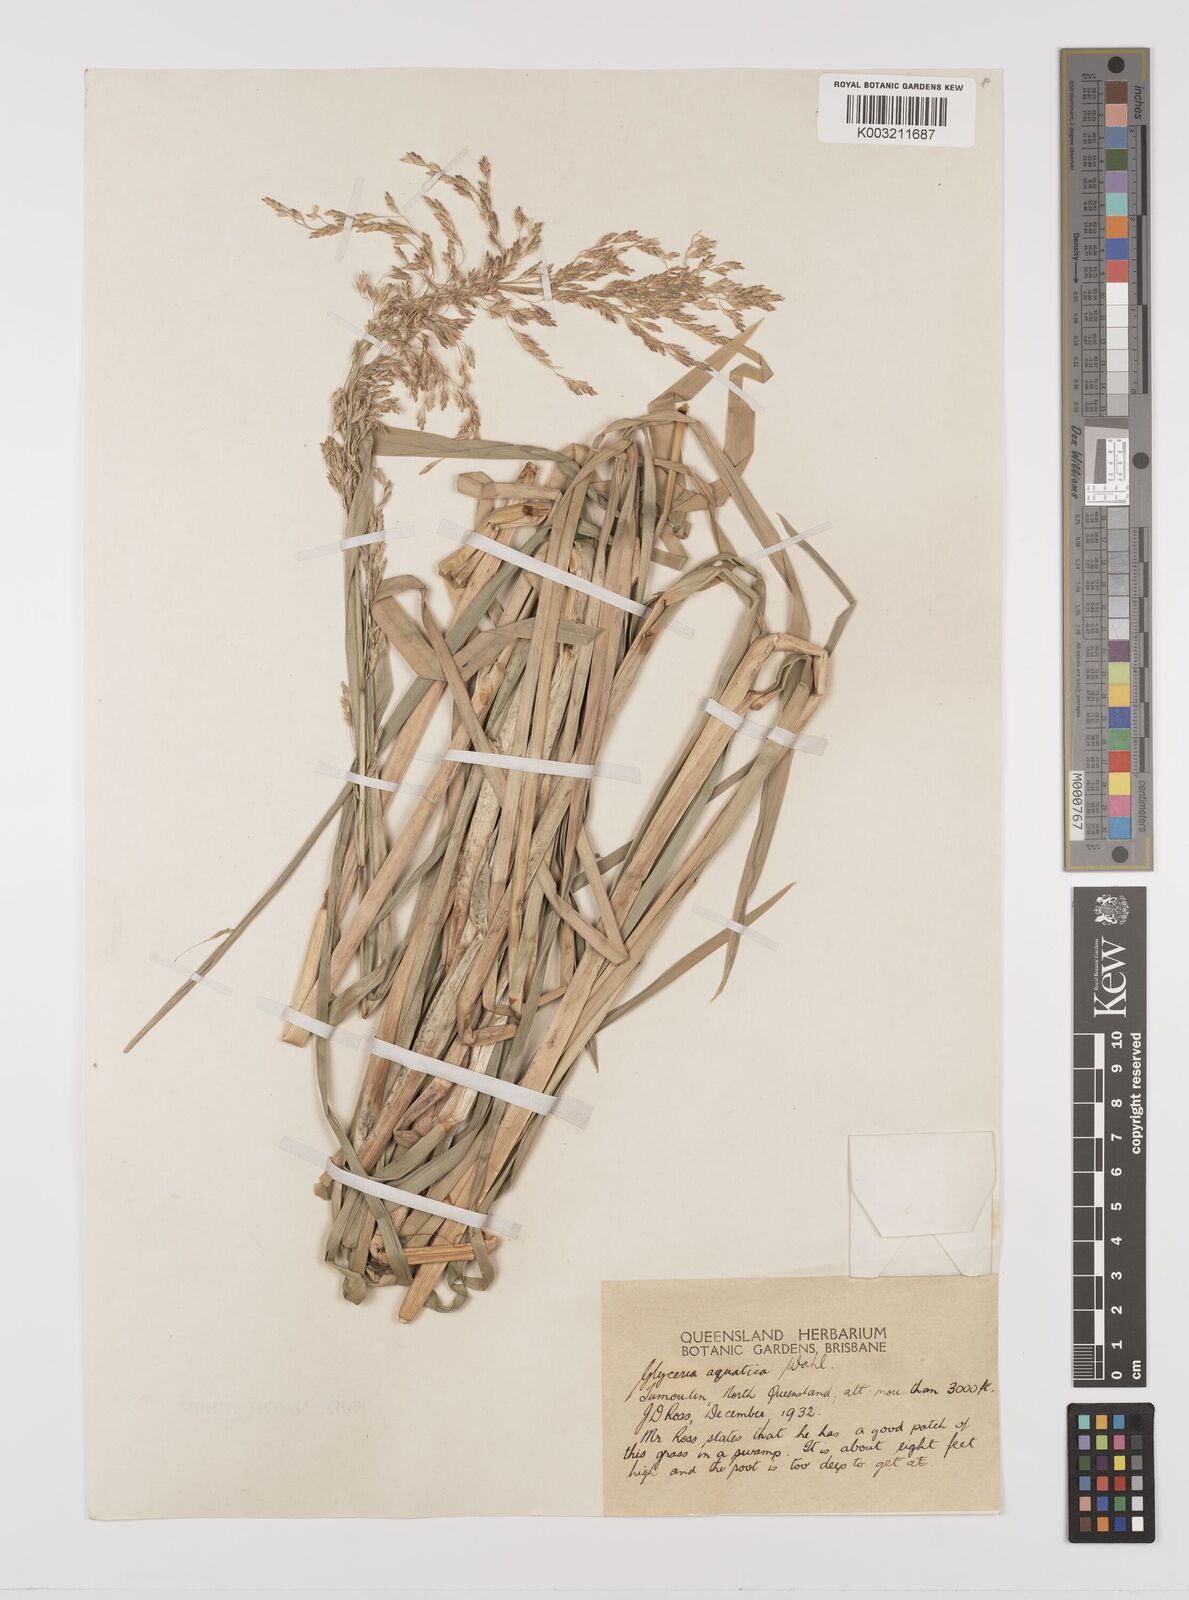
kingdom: Plantae
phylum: Tracheophyta
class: Liliopsida
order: Poales
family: Poaceae
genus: Glyceria
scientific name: Glyceria maxima
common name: Reed mannagrass
